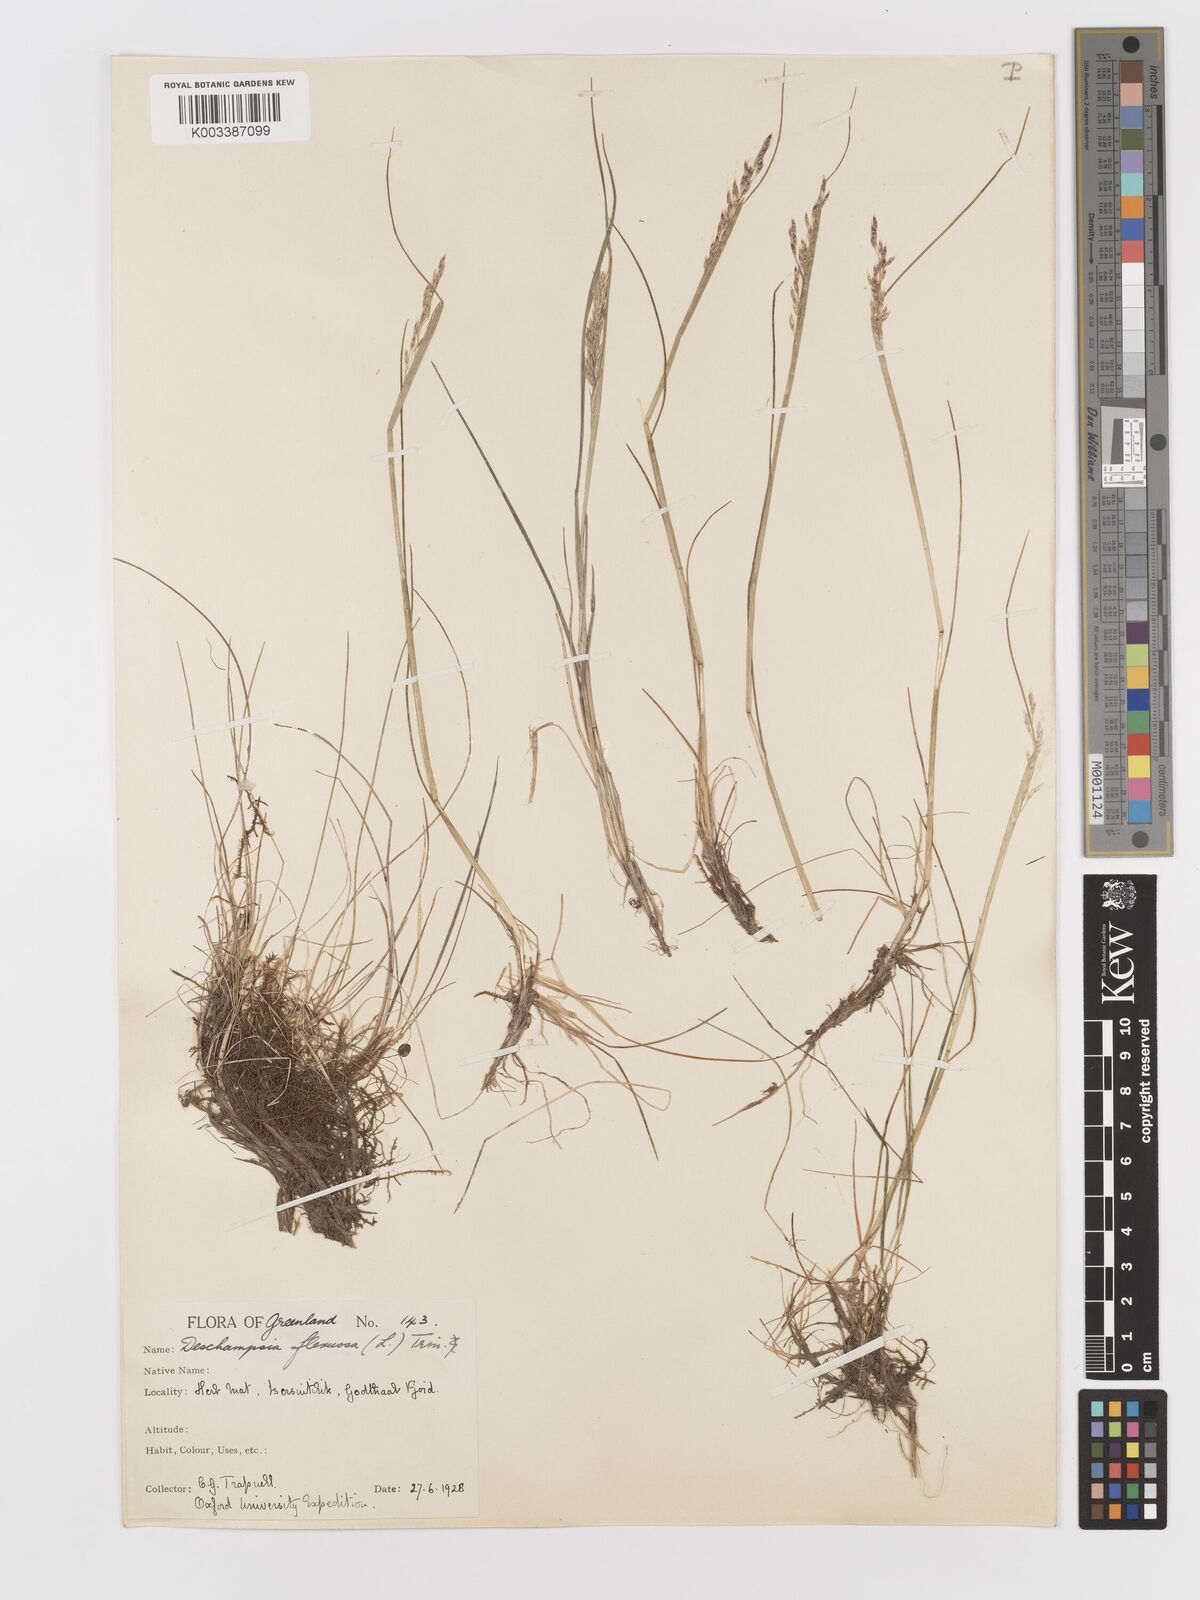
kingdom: Plantae
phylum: Tracheophyta
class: Liliopsida
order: Poales
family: Poaceae
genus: Avenella
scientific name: Avenella flexuosa
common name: Wavy hairgrass
